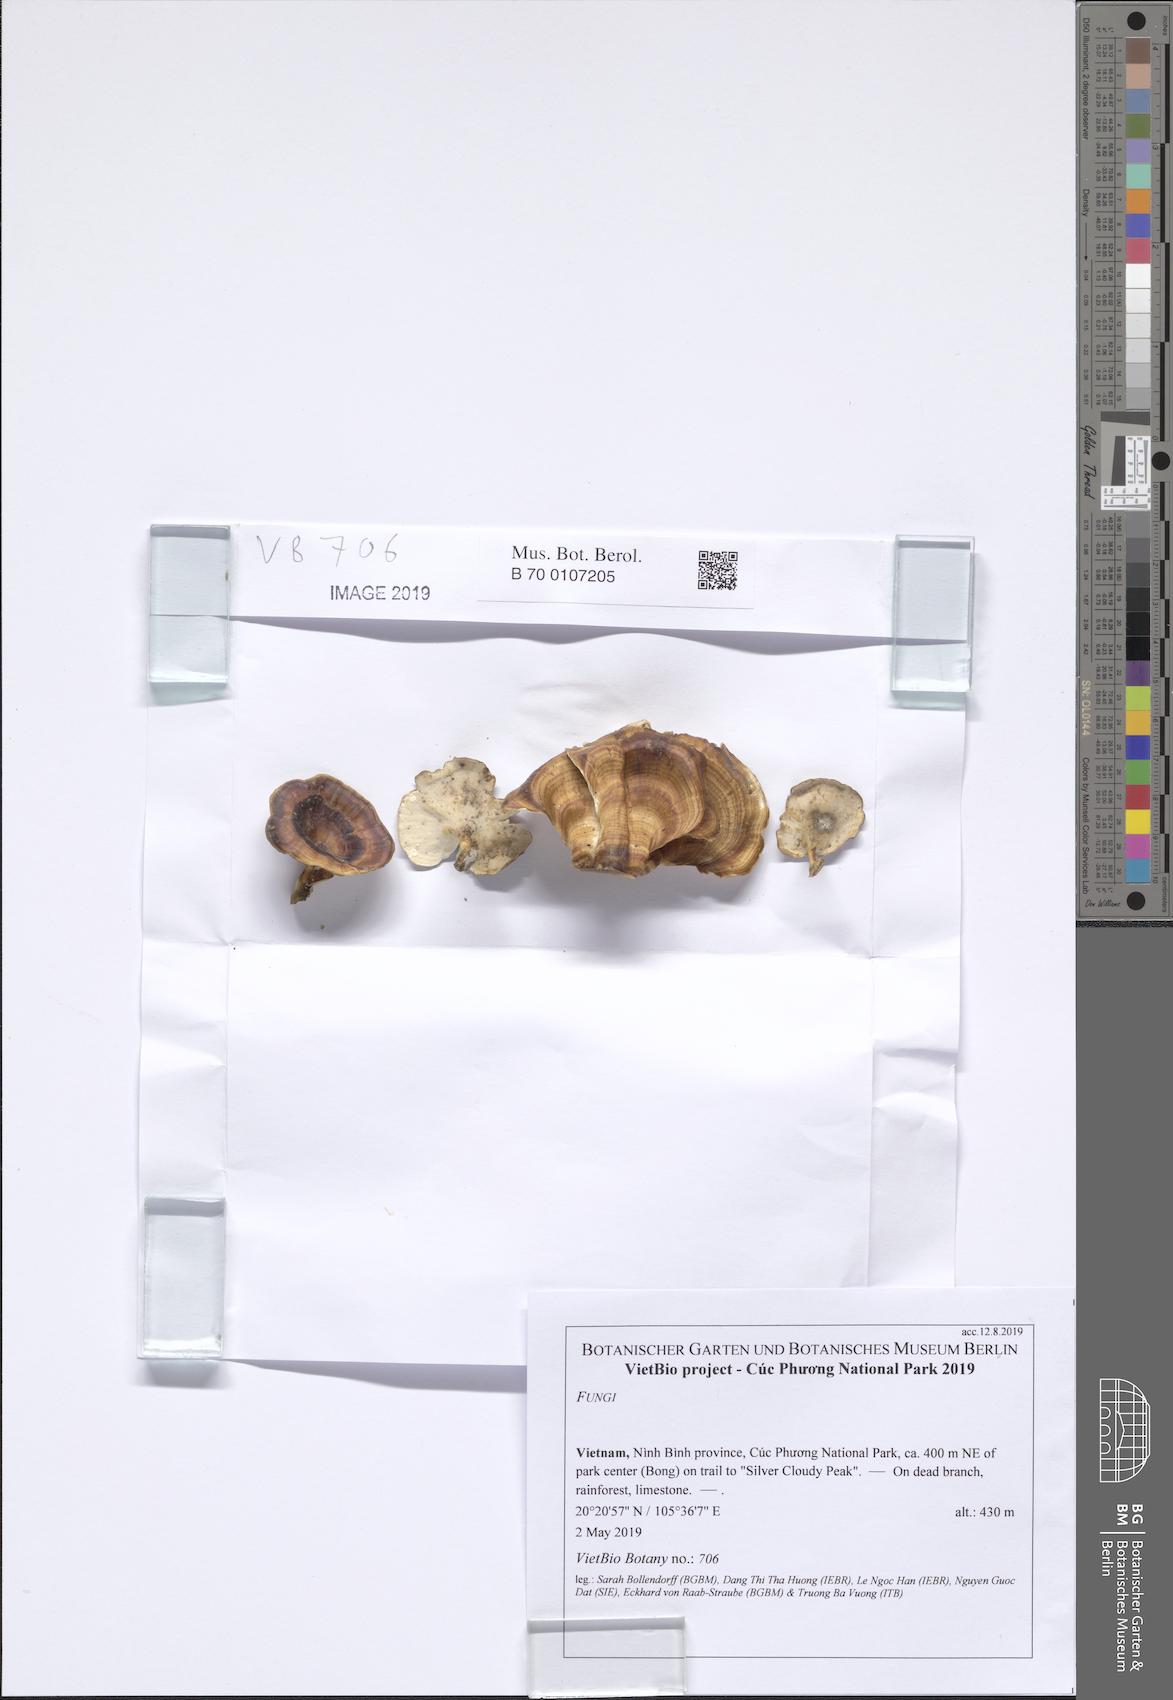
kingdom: Fungi
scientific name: Fungi
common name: Fungi
